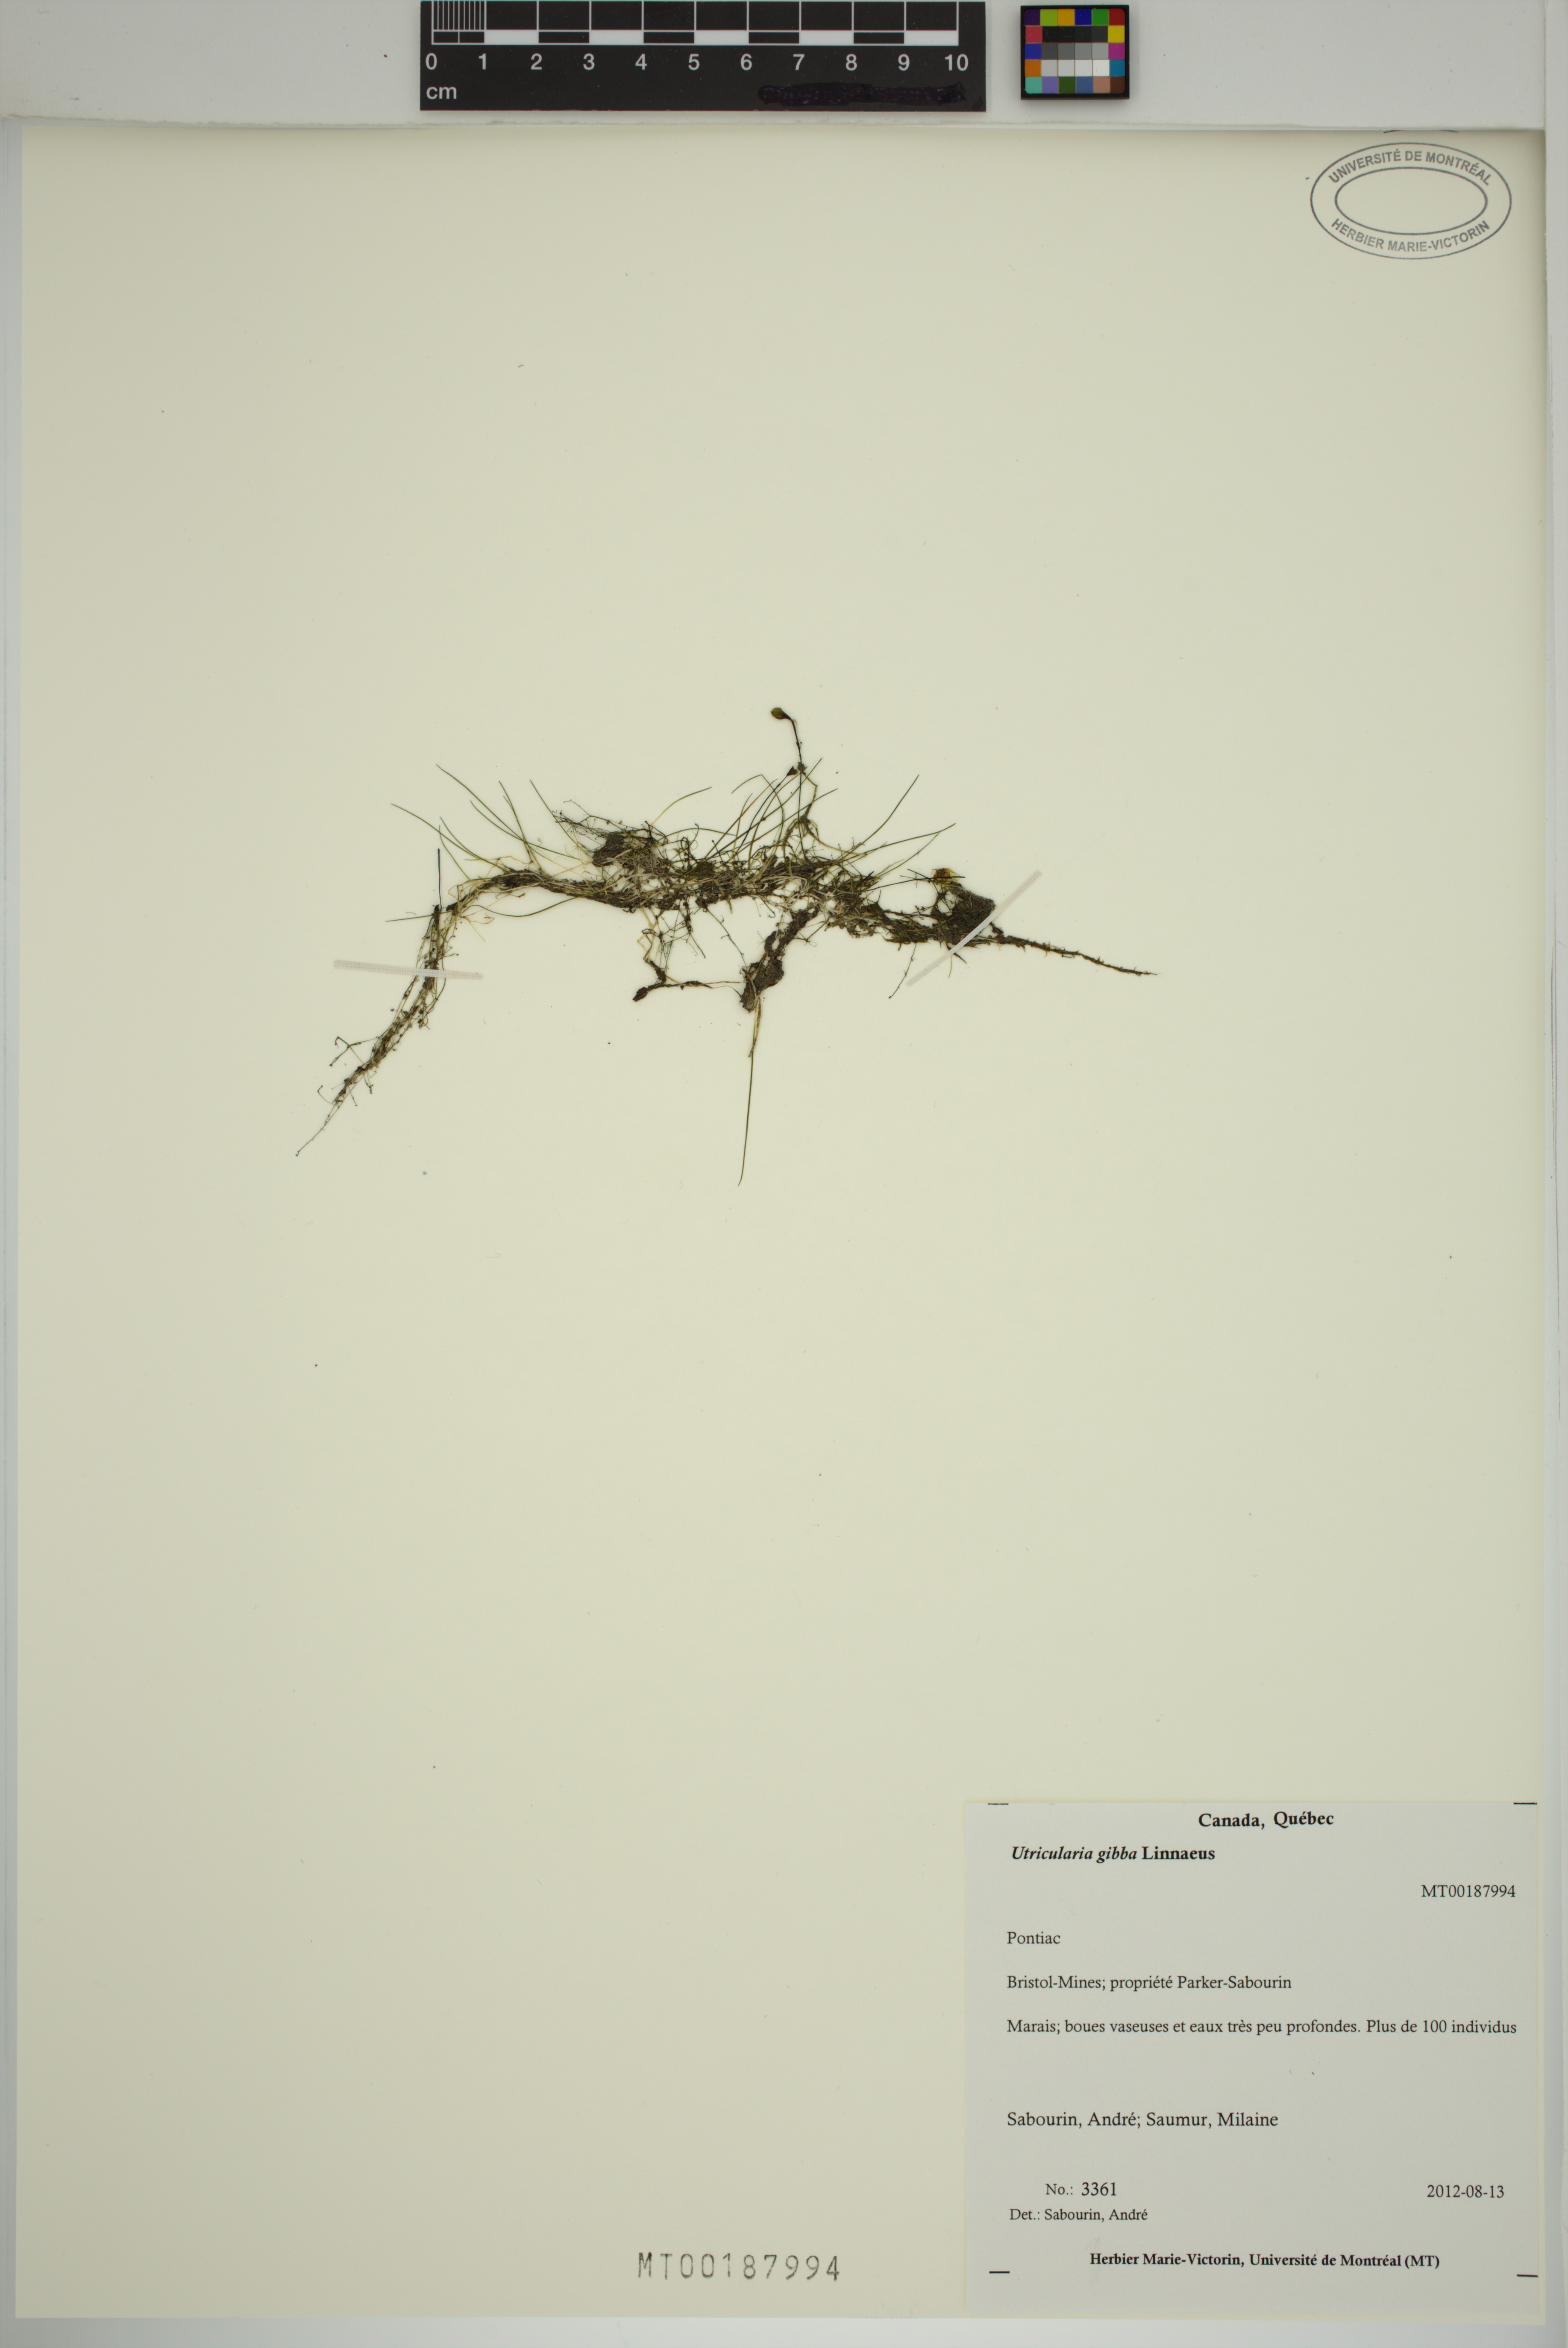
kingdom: Plantae
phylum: Tracheophyta
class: Magnoliopsida
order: Lamiales
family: Lentibulariaceae
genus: Utricularia
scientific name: Utricularia gibba
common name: Humped bladderwort
